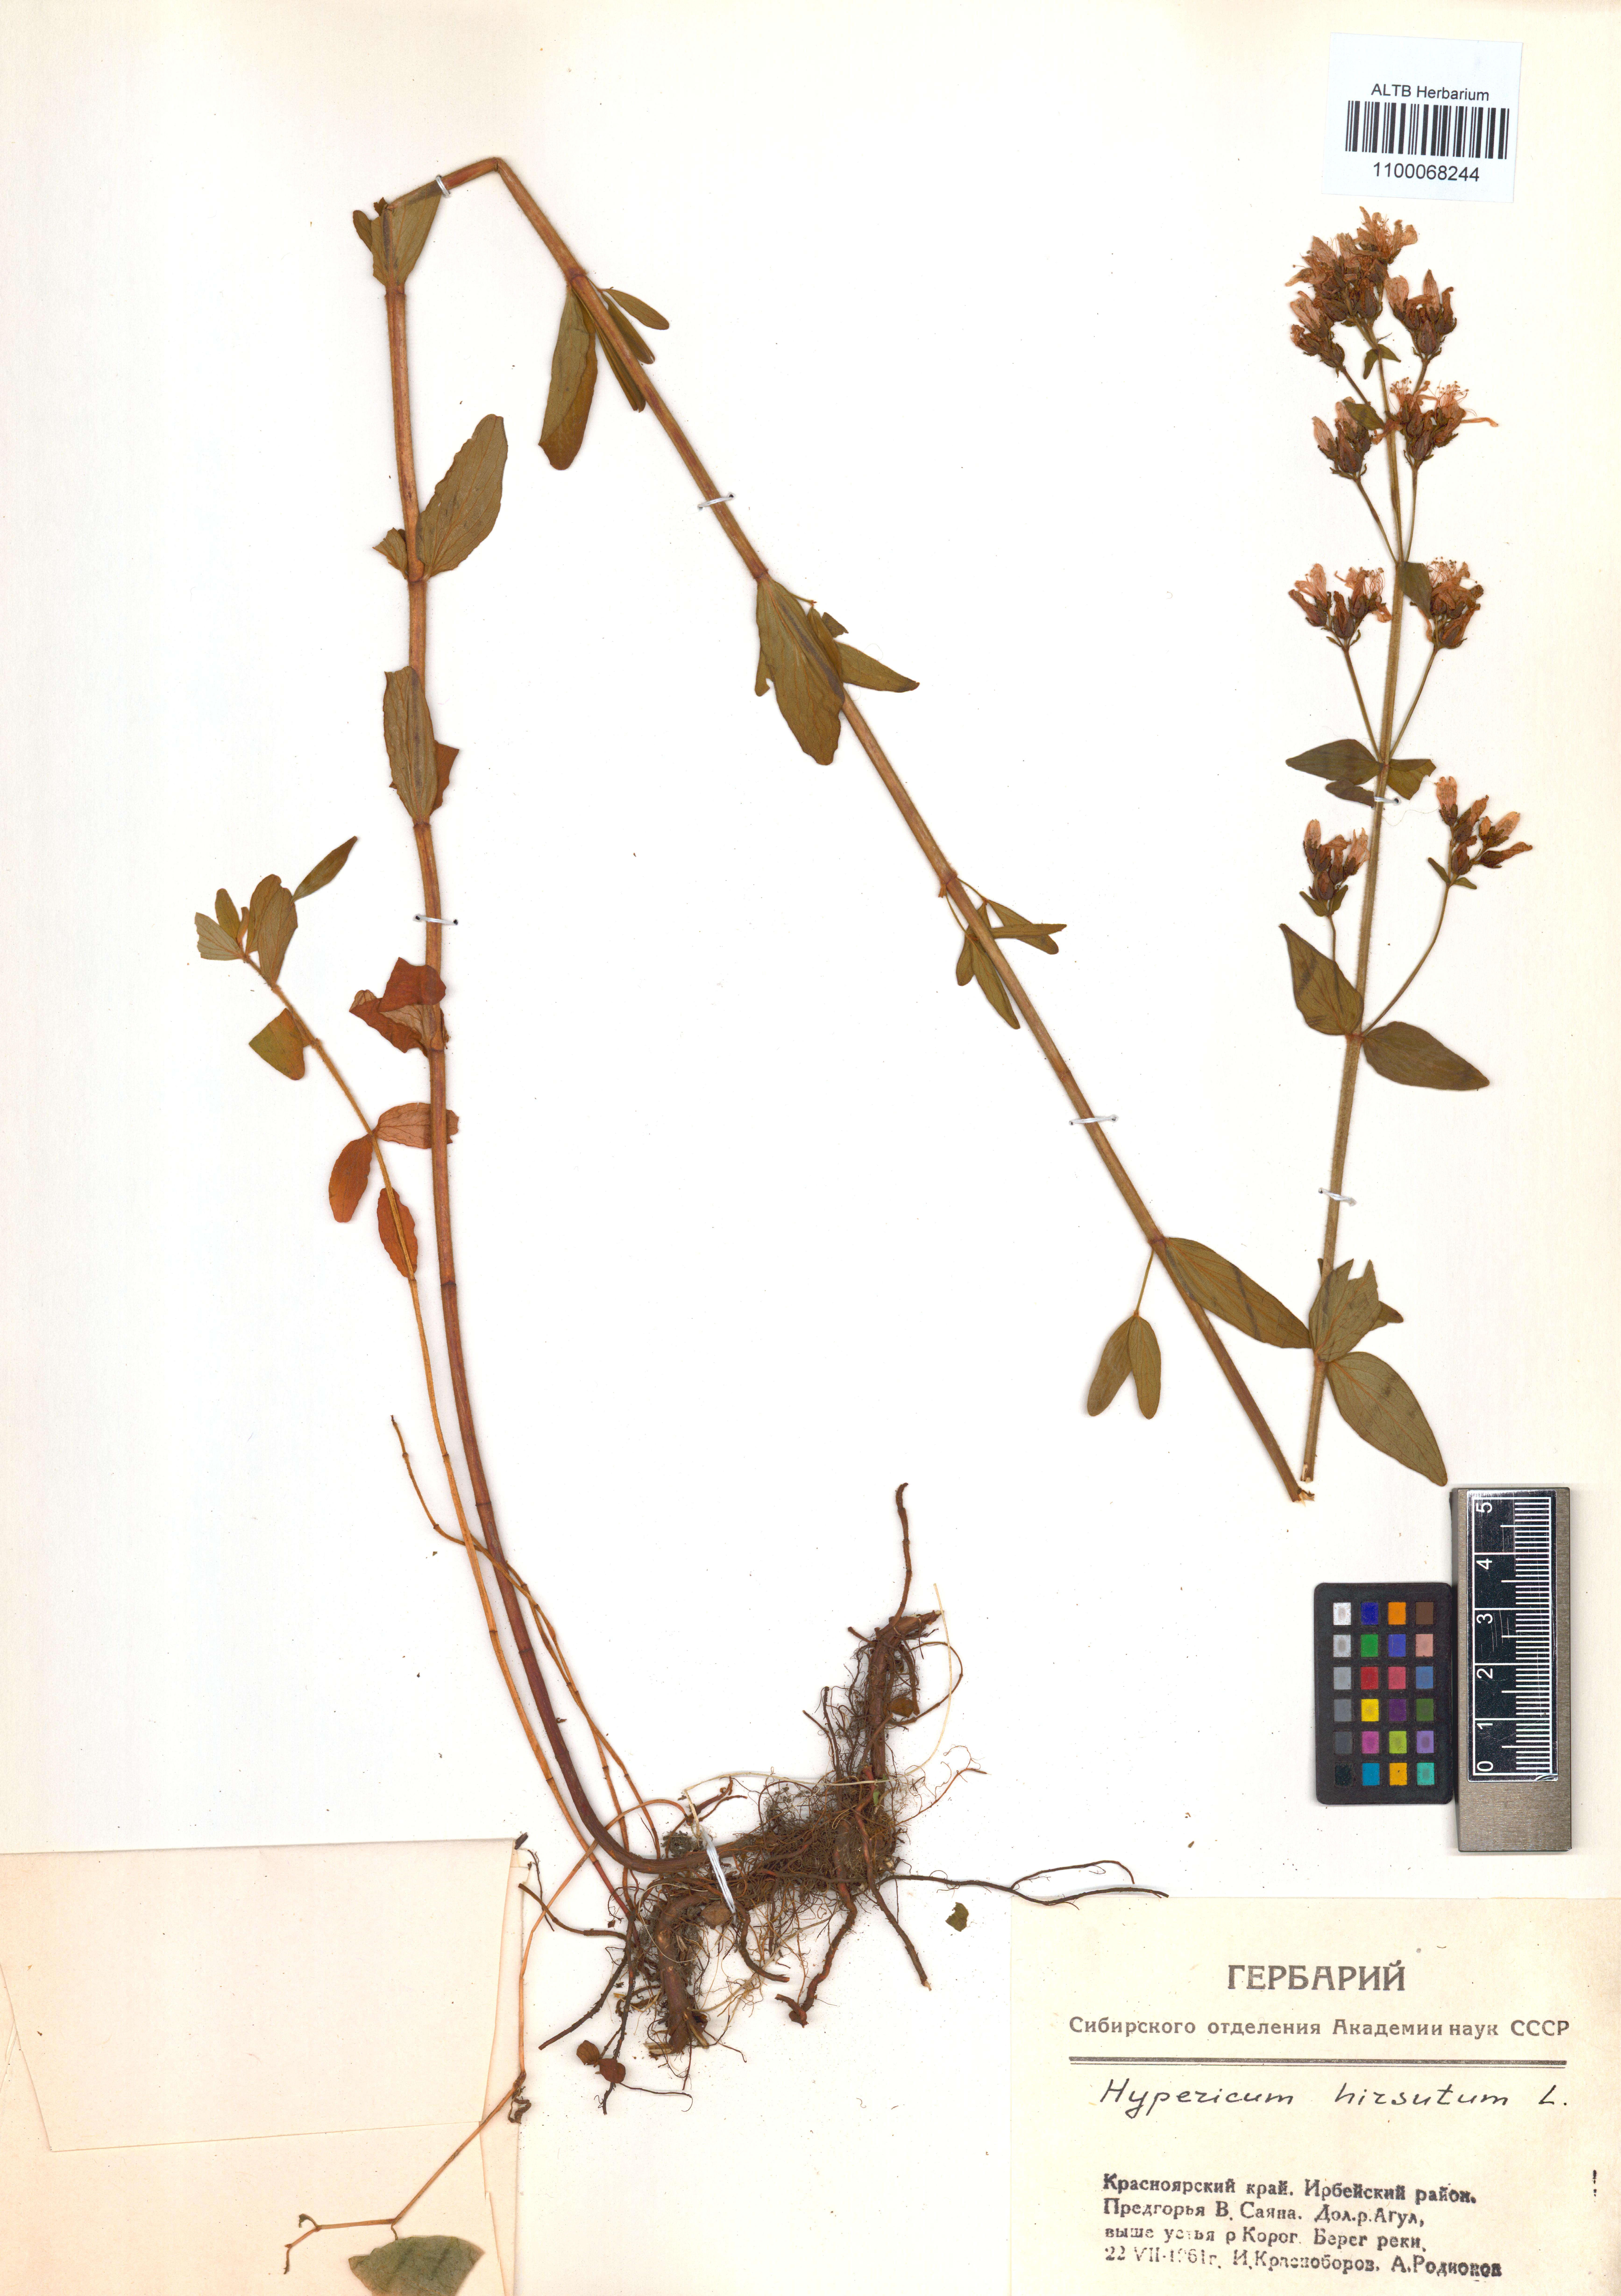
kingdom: Plantae
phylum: Tracheophyta
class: Magnoliopsida
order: Malpighiales
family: Hypericaceae
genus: Hypericum
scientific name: Hypericum hirsutum
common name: Hairy st. john's-wort
